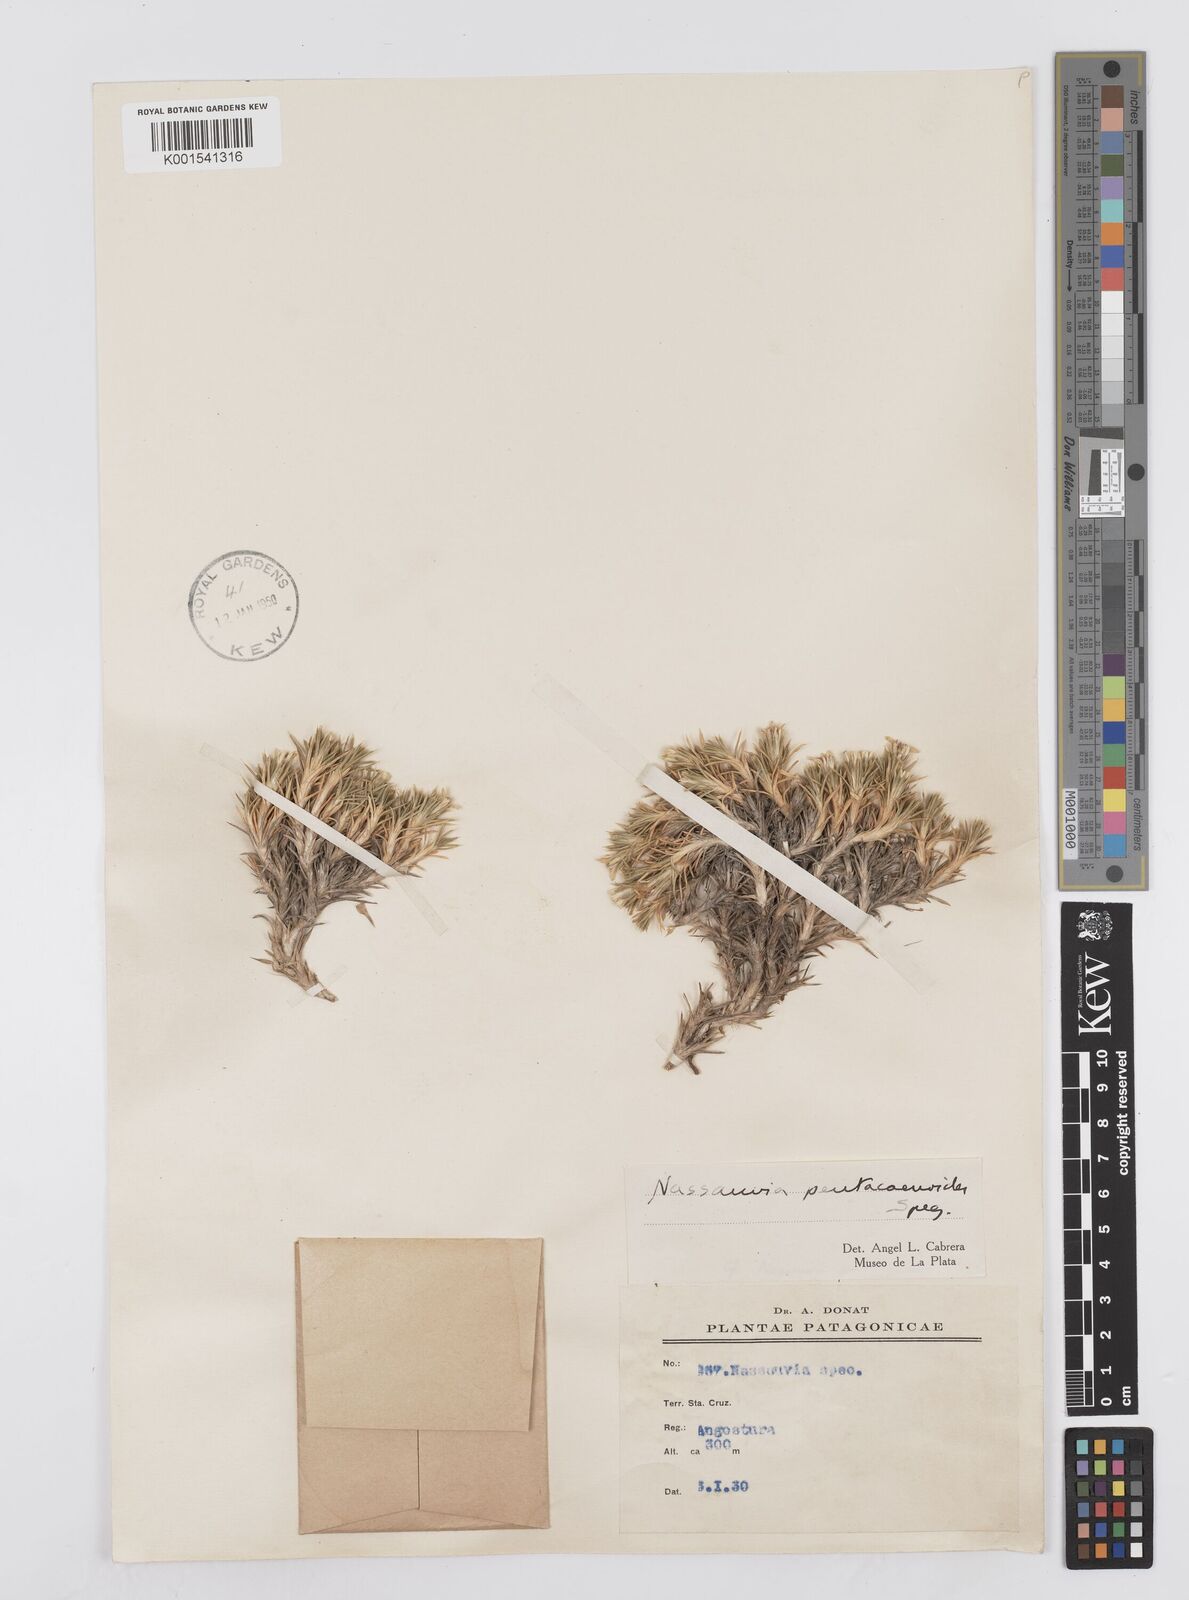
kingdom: Plantae
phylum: Tracheophyta
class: Magnoliopsida
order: Asterales
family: Asteraceae
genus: Nassauvia
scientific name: Nassauvia pentacaenoides
